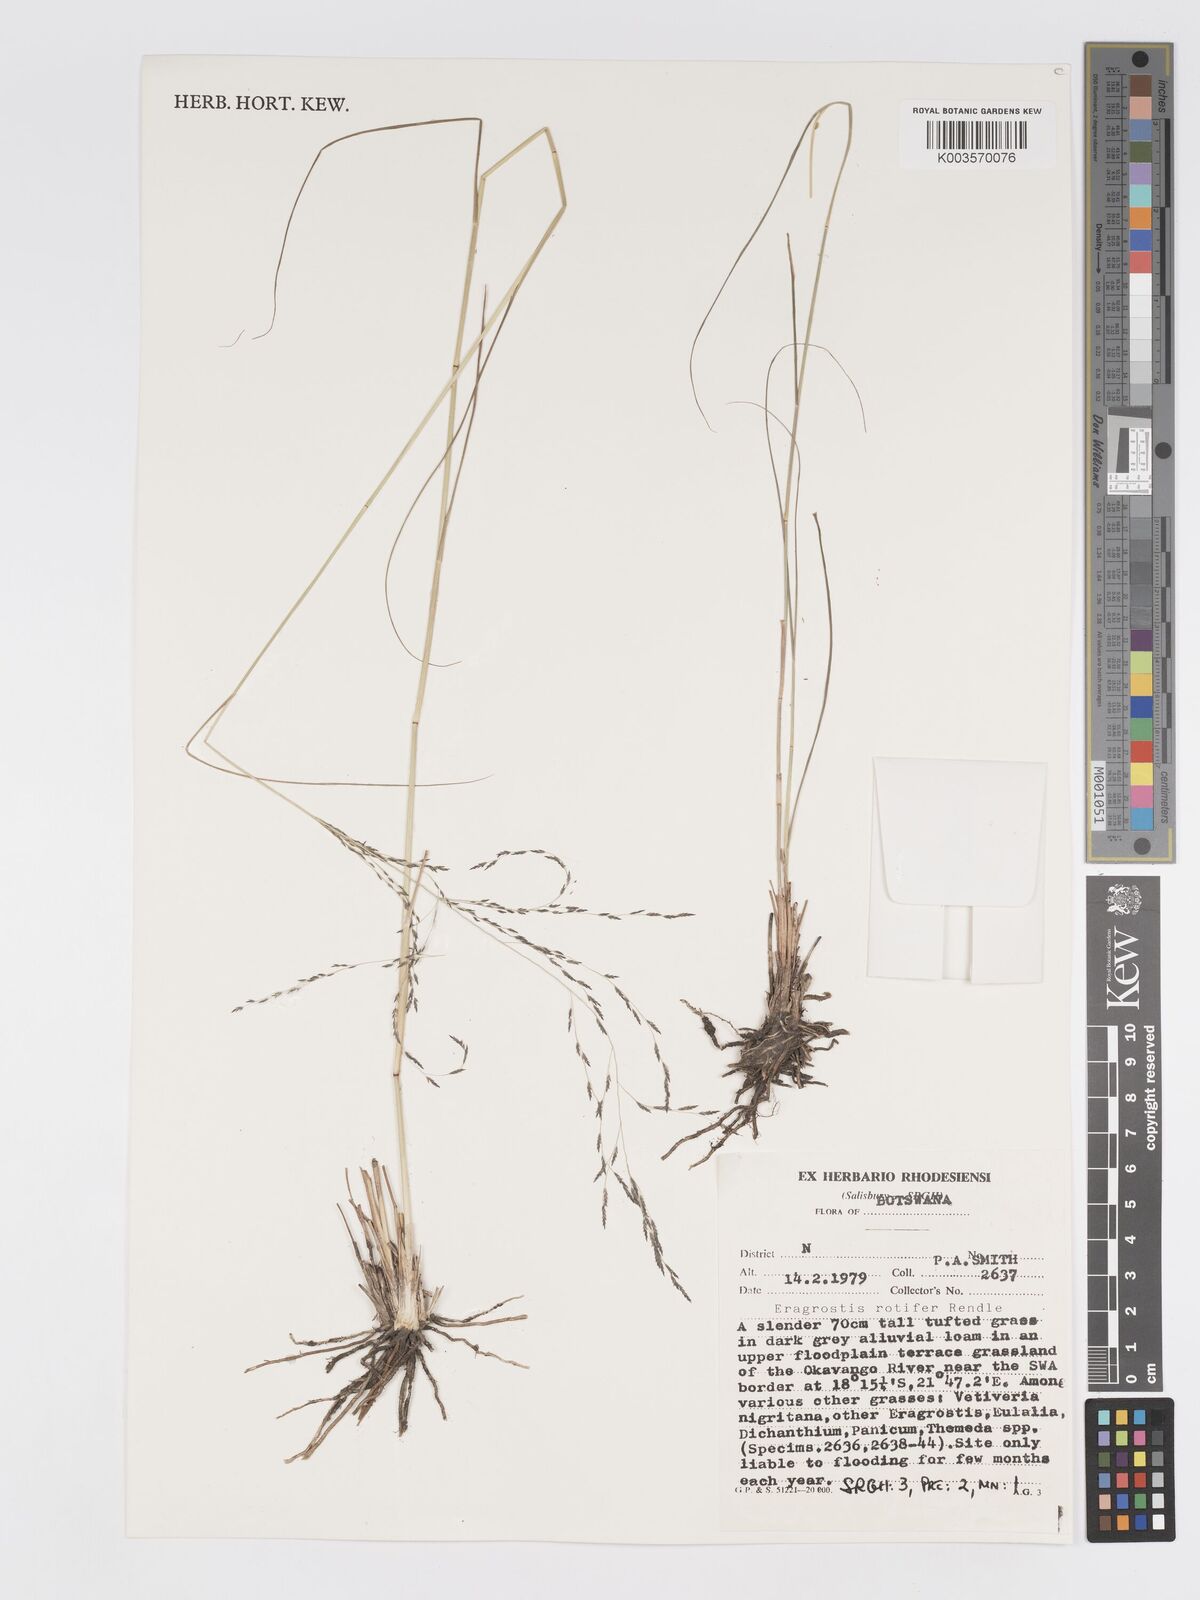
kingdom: Plantae
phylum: Tracheophyta
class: Liliopsida
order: Poales
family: Poaceae
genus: Eragrostis
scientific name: Eragrostis rotifer
